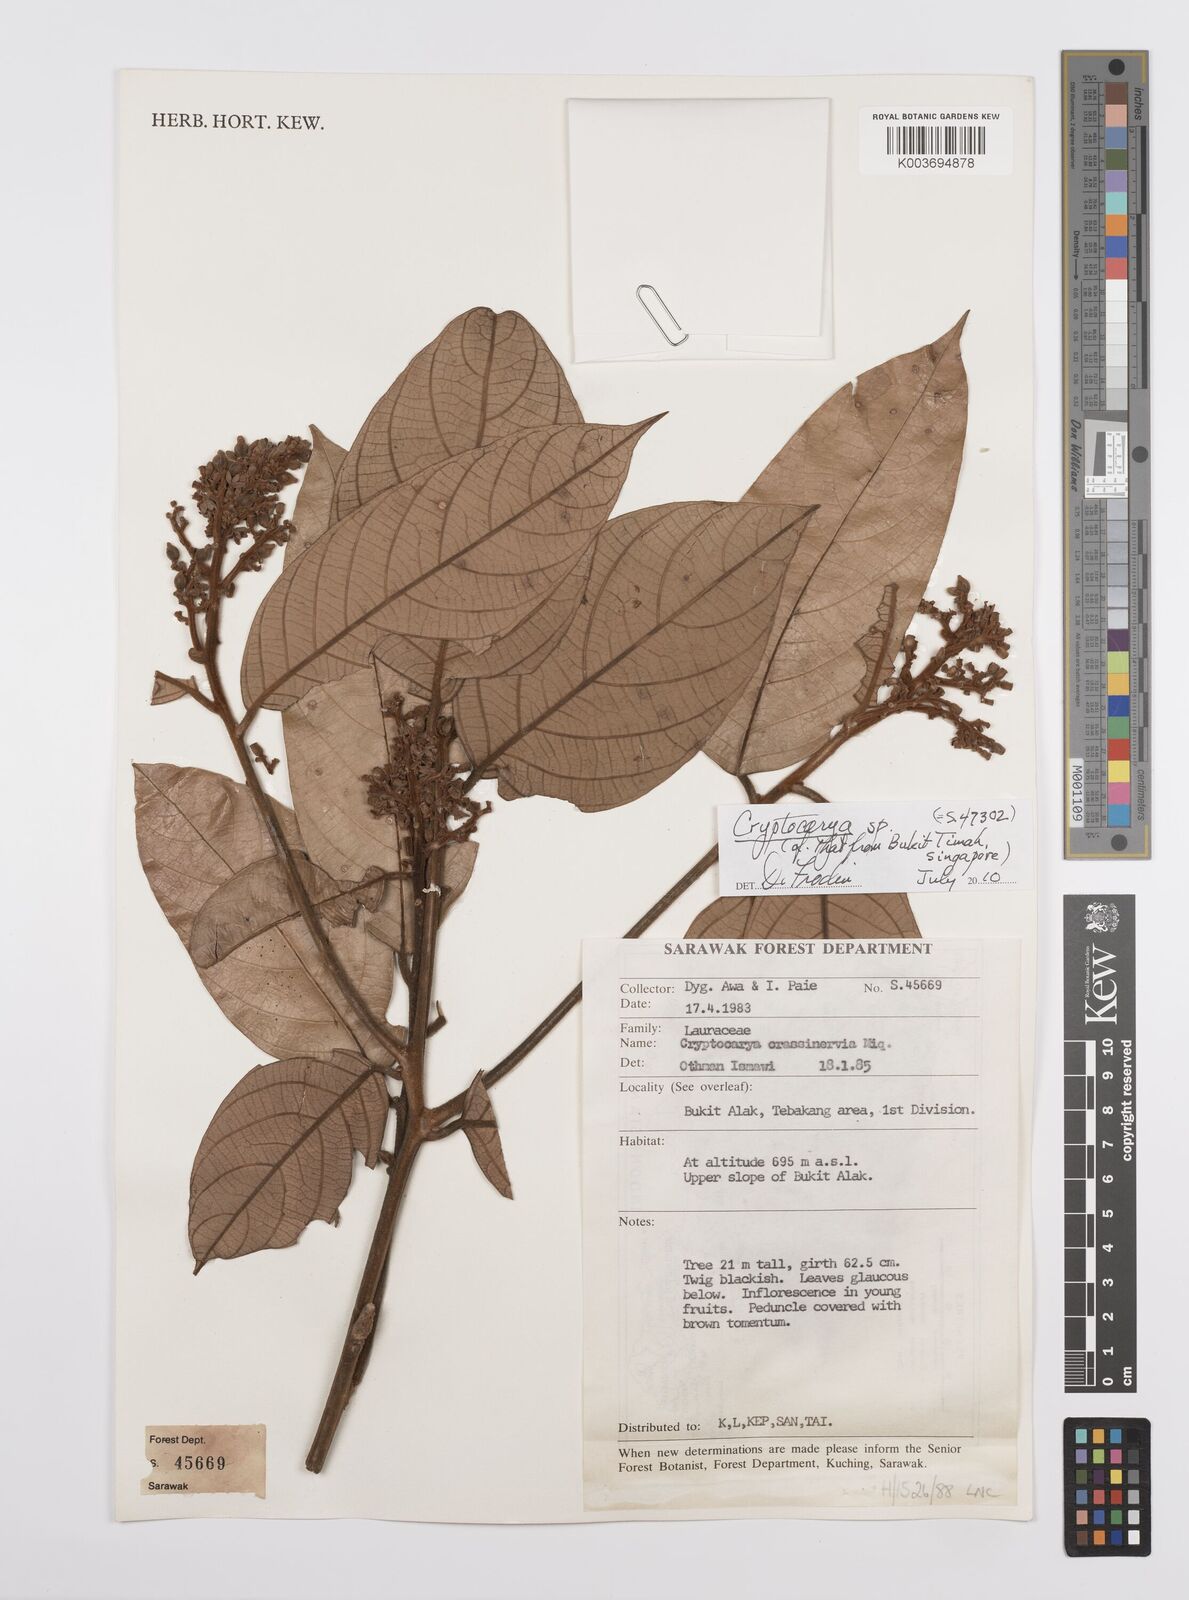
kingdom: Plantae
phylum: Tracheophyta
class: Magnoliopsida
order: Laurales
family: Lauraceae
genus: Cryptocarya
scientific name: Cryptocarya
